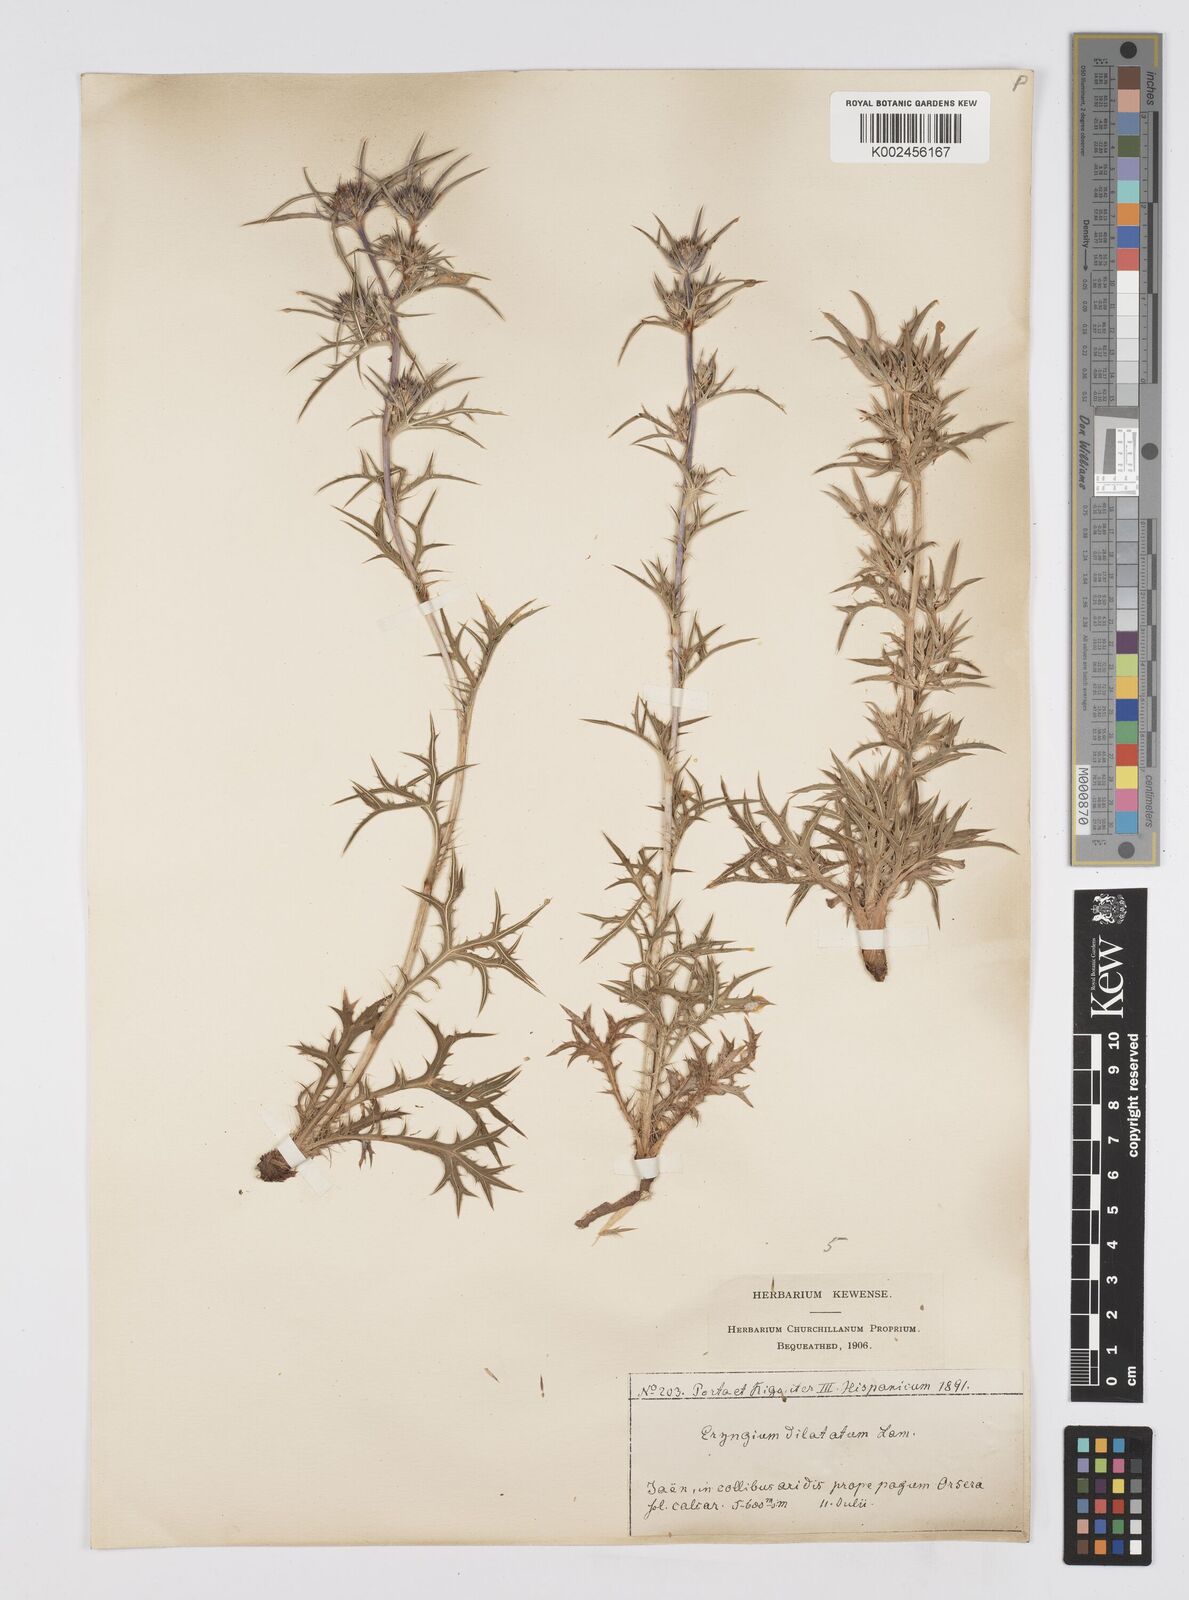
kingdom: Plantae
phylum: Tracheophyta
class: Magnoliopsida
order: Apiales
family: Apiaceae
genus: Eryngium
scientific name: Eryngium dilatatum
